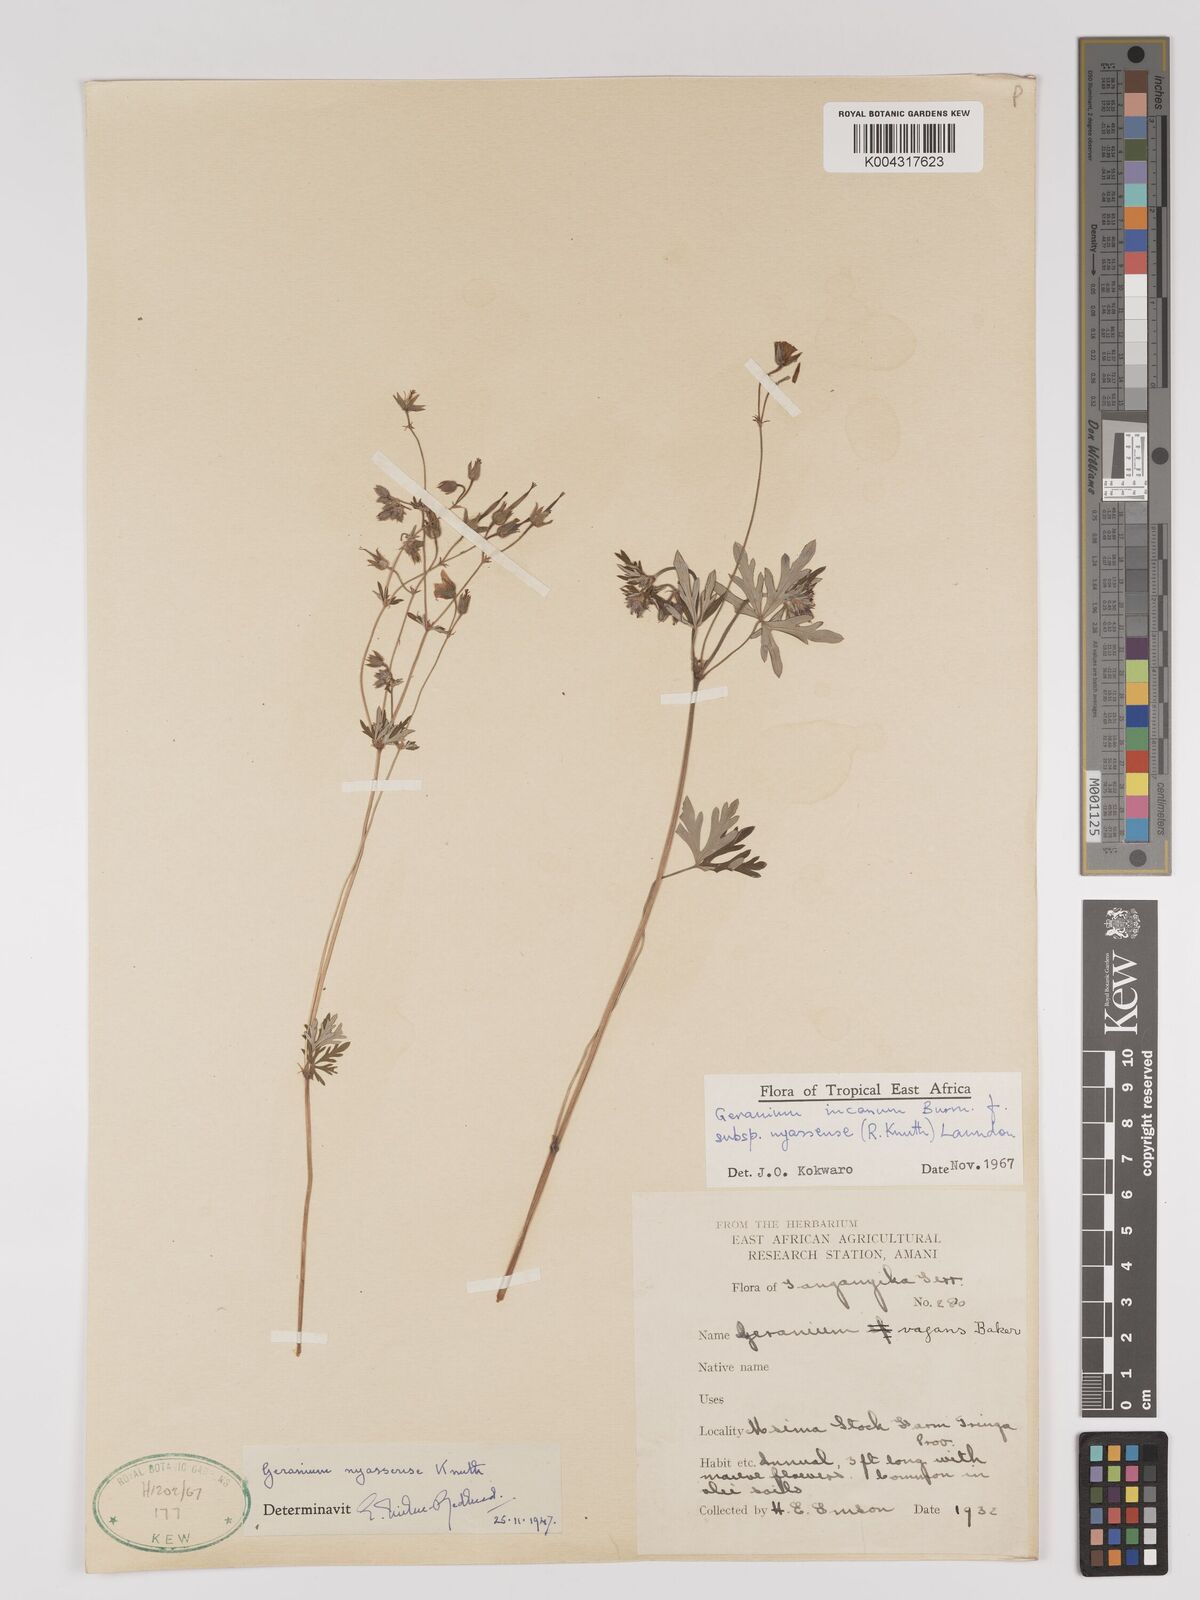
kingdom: Plantae
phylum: Tracheophyta
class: Magnoliopsida
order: Geraniales
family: Geraniaceae
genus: Geranium
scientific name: Geranium incanum
